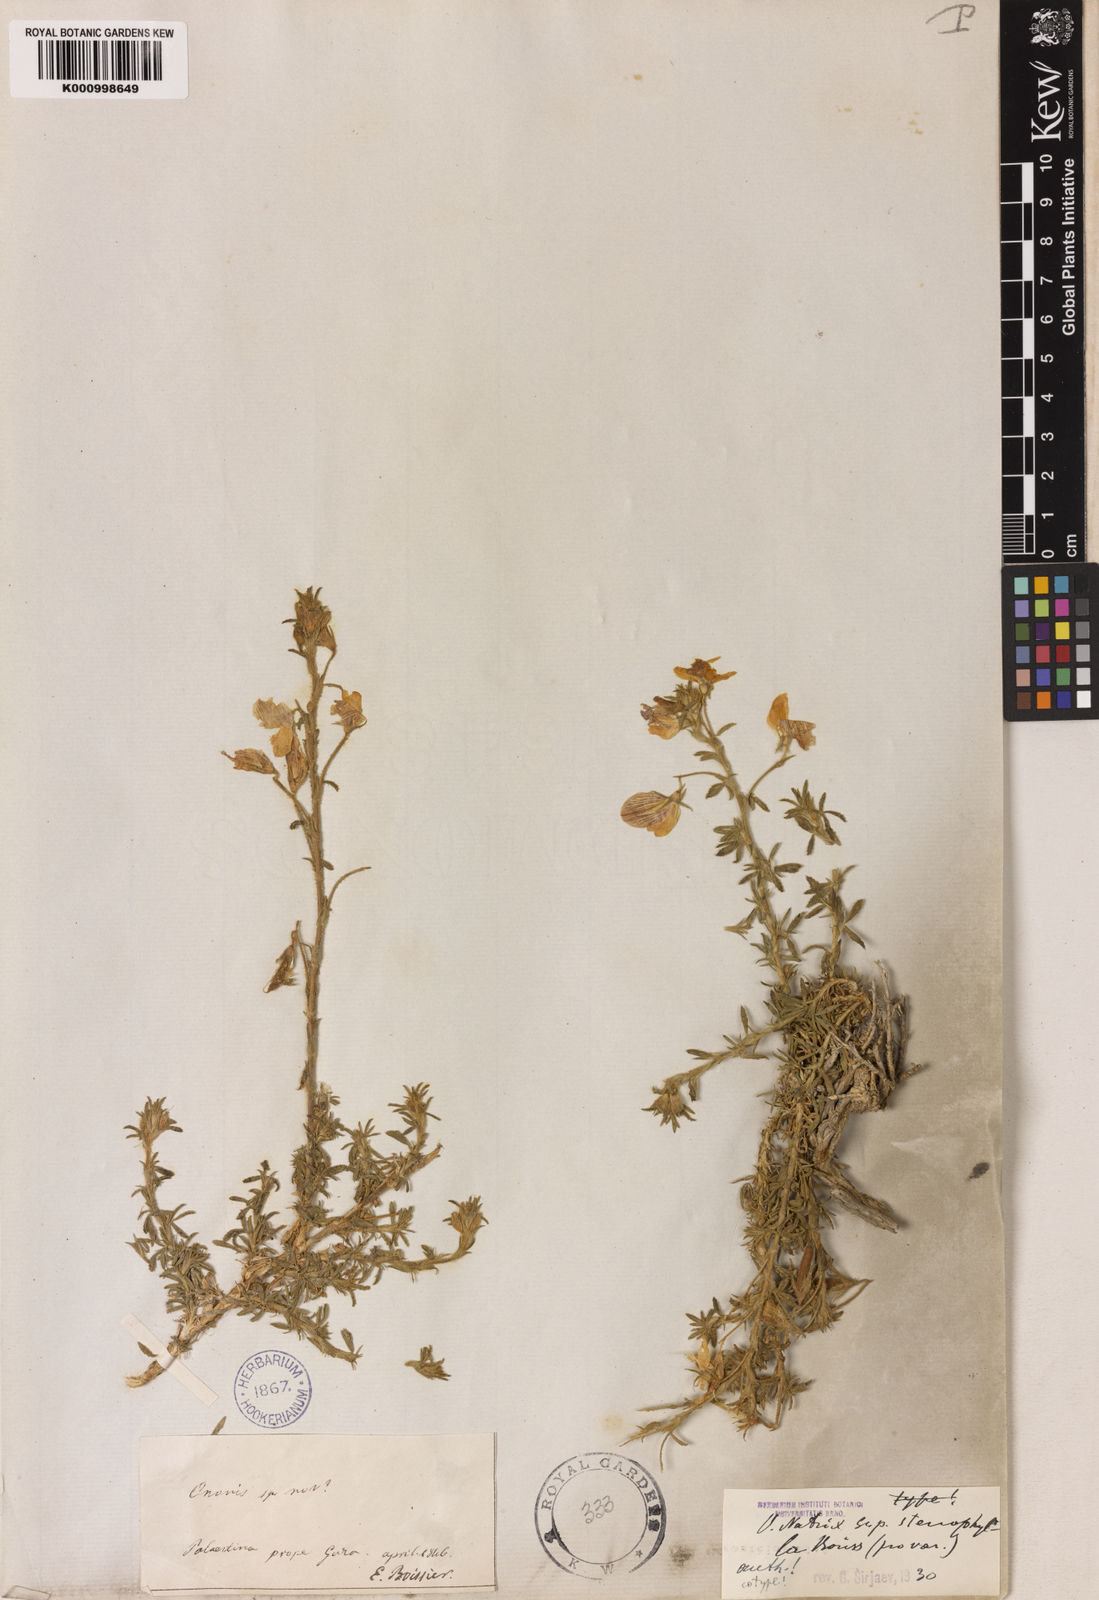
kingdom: Plantae
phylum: Tracheophyta
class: Magnoliopsida
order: Fabales
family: Fabaceae
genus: Ononis
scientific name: Ononis natrix
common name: Yellow restharrow
